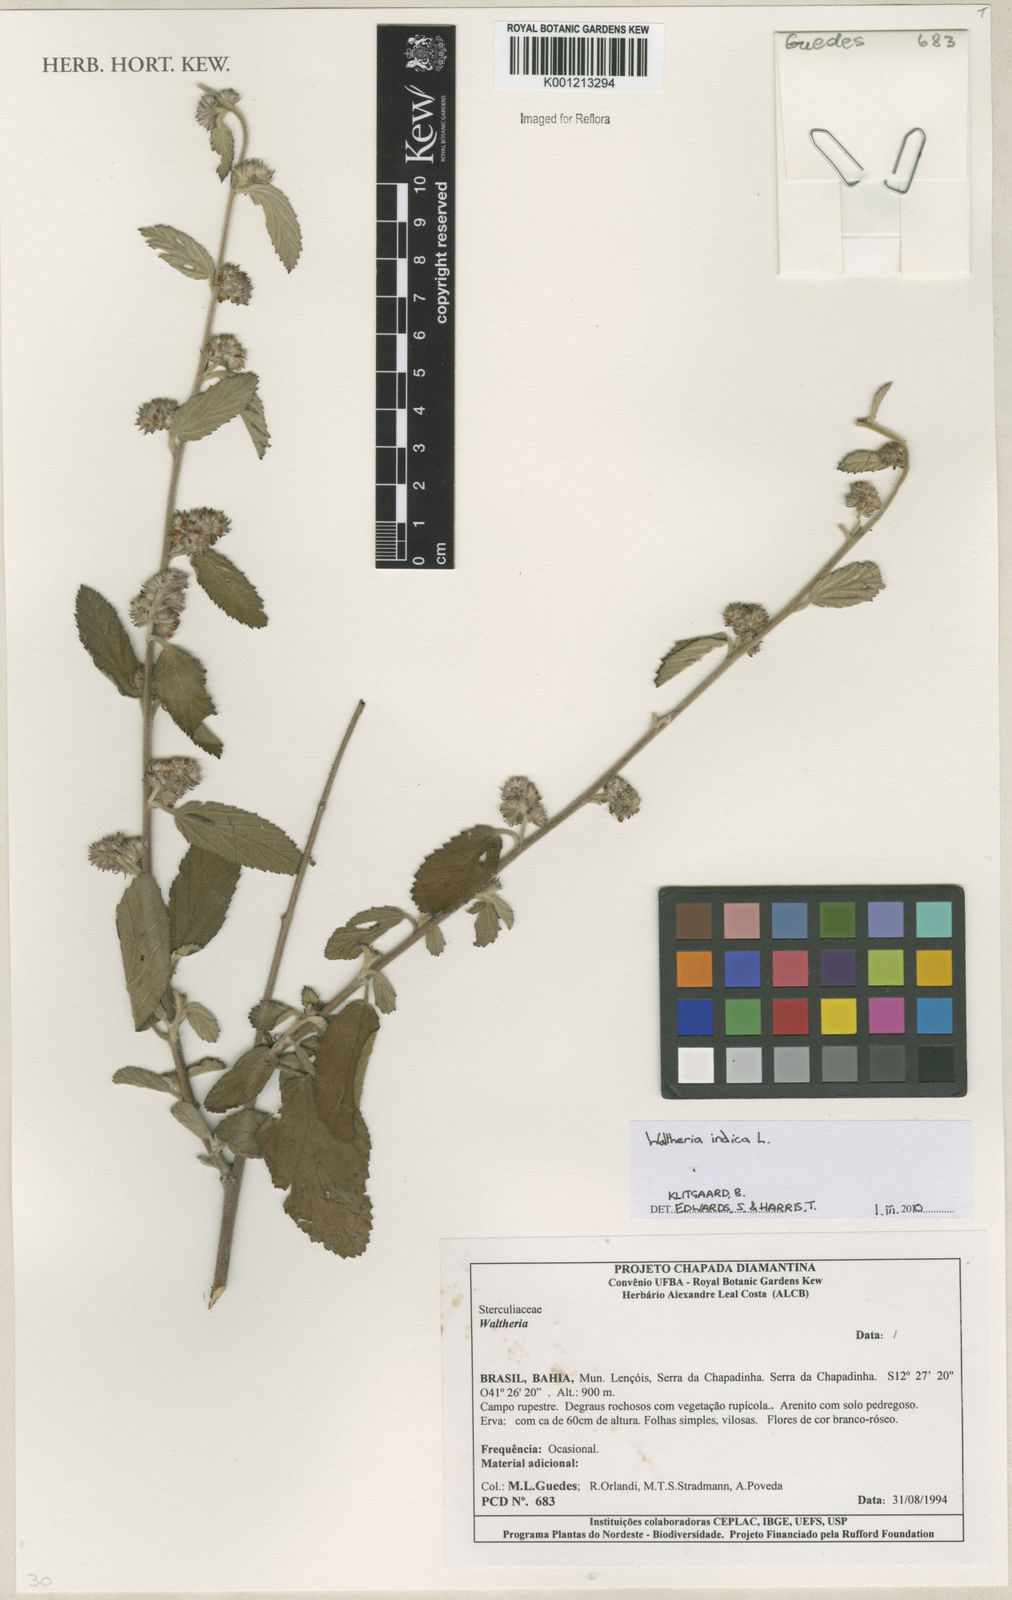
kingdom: Plantae
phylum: Tracheophyta
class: Magnoliopsida
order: Malvales
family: Malvaceae
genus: Waltheria
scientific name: Waltheria indica
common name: Leather-coat
